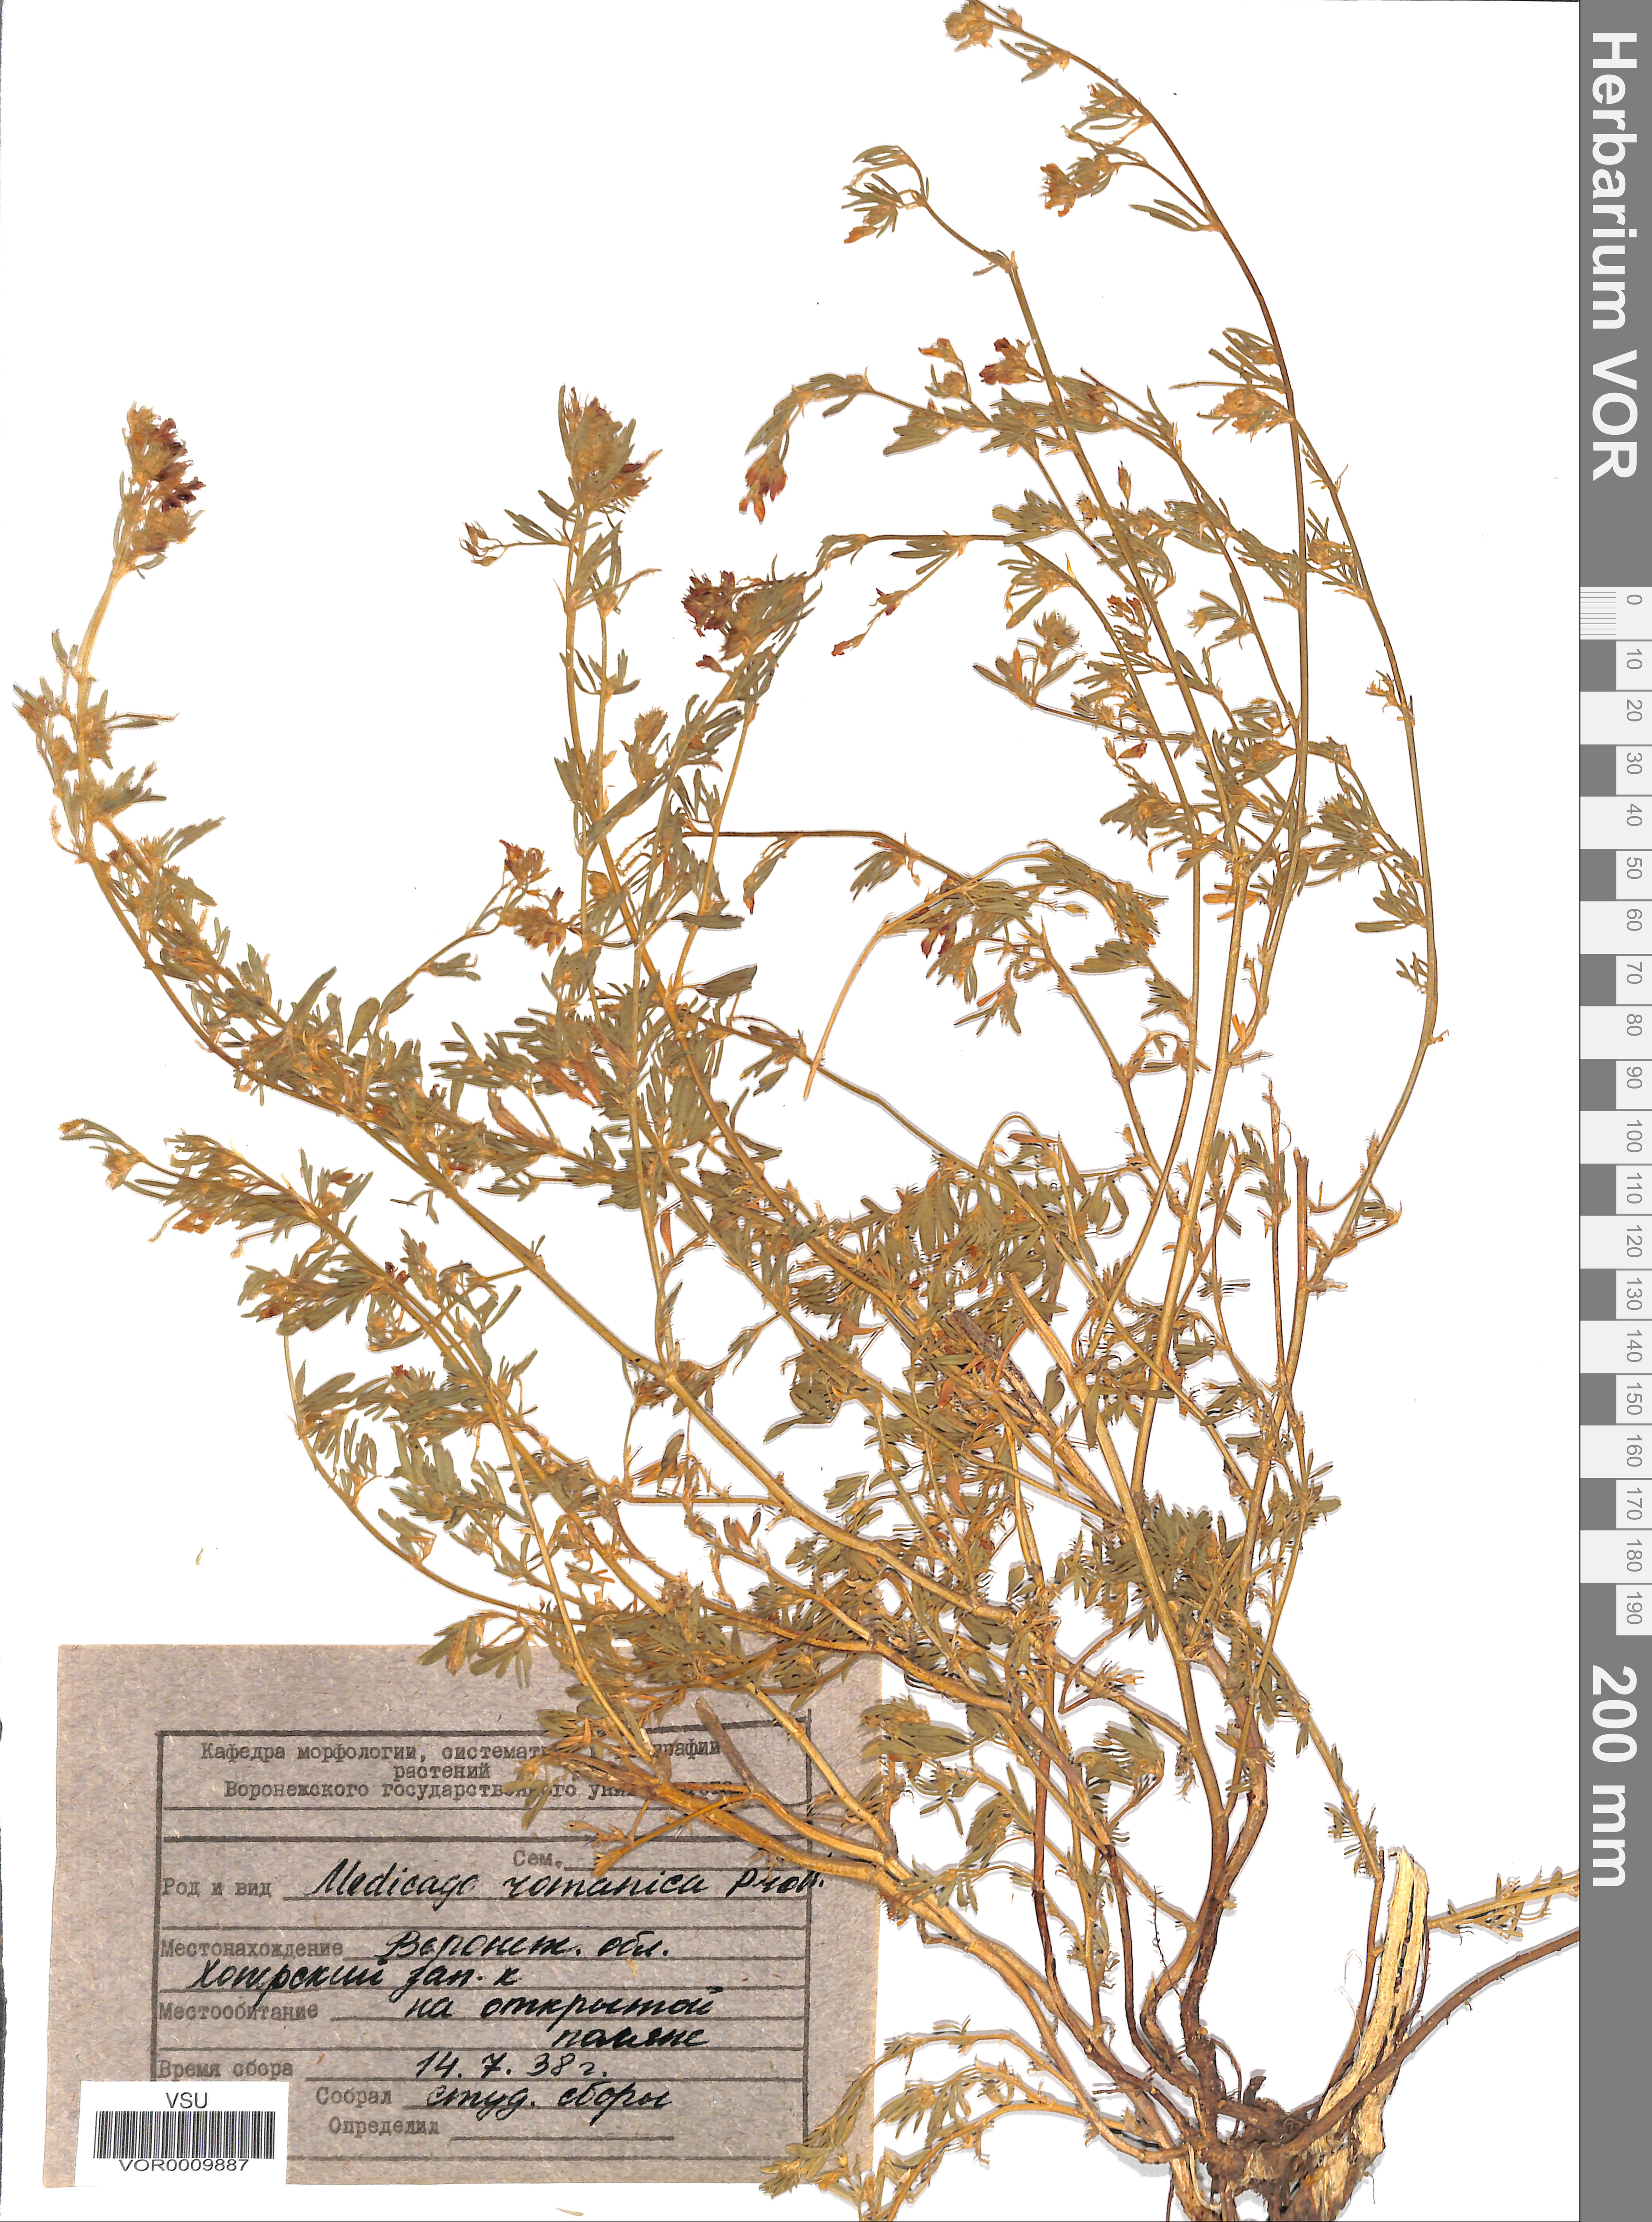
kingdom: Plantae
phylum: Tracheophyta
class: Magnoliopsida
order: Fabales
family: Fabaceae
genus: Medicago
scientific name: Medicago falcata
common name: Sickle medick
